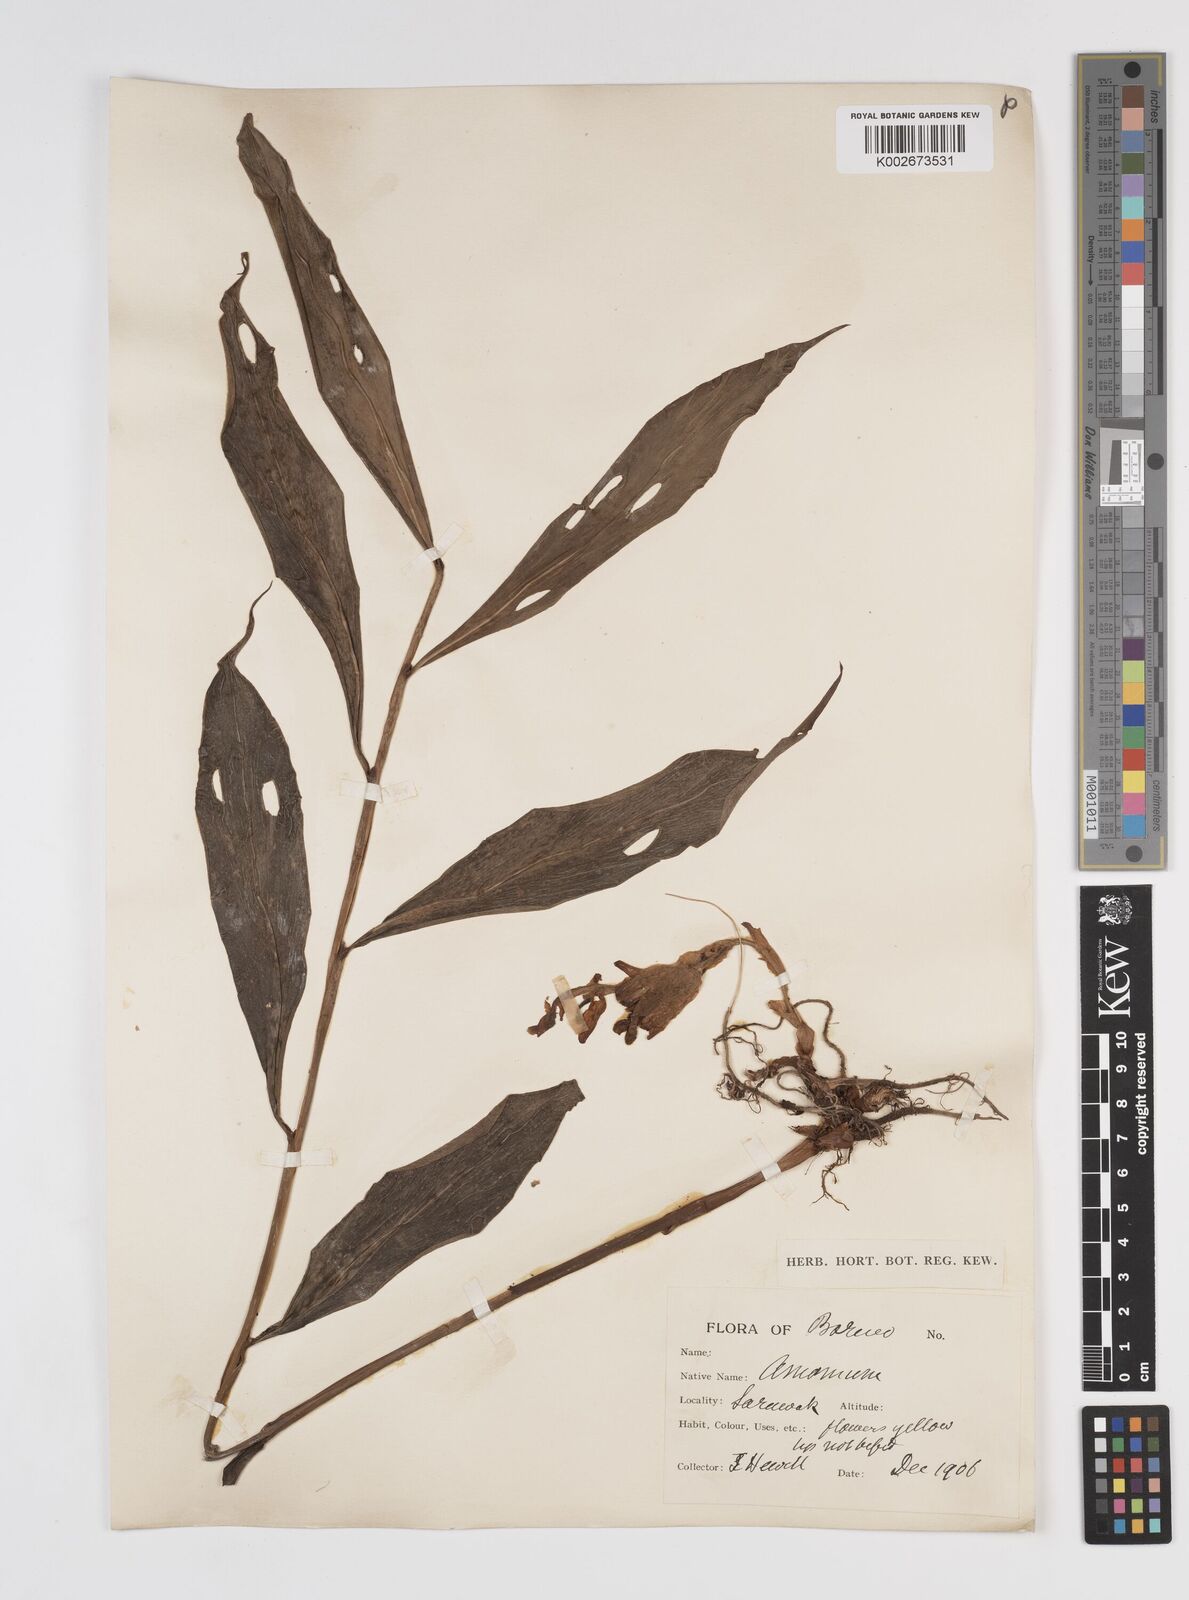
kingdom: Plantae
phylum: Tracheophyta
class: Liliopsida
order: Zingiberales
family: Zingiberaceae
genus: Amomum
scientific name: Amomum
